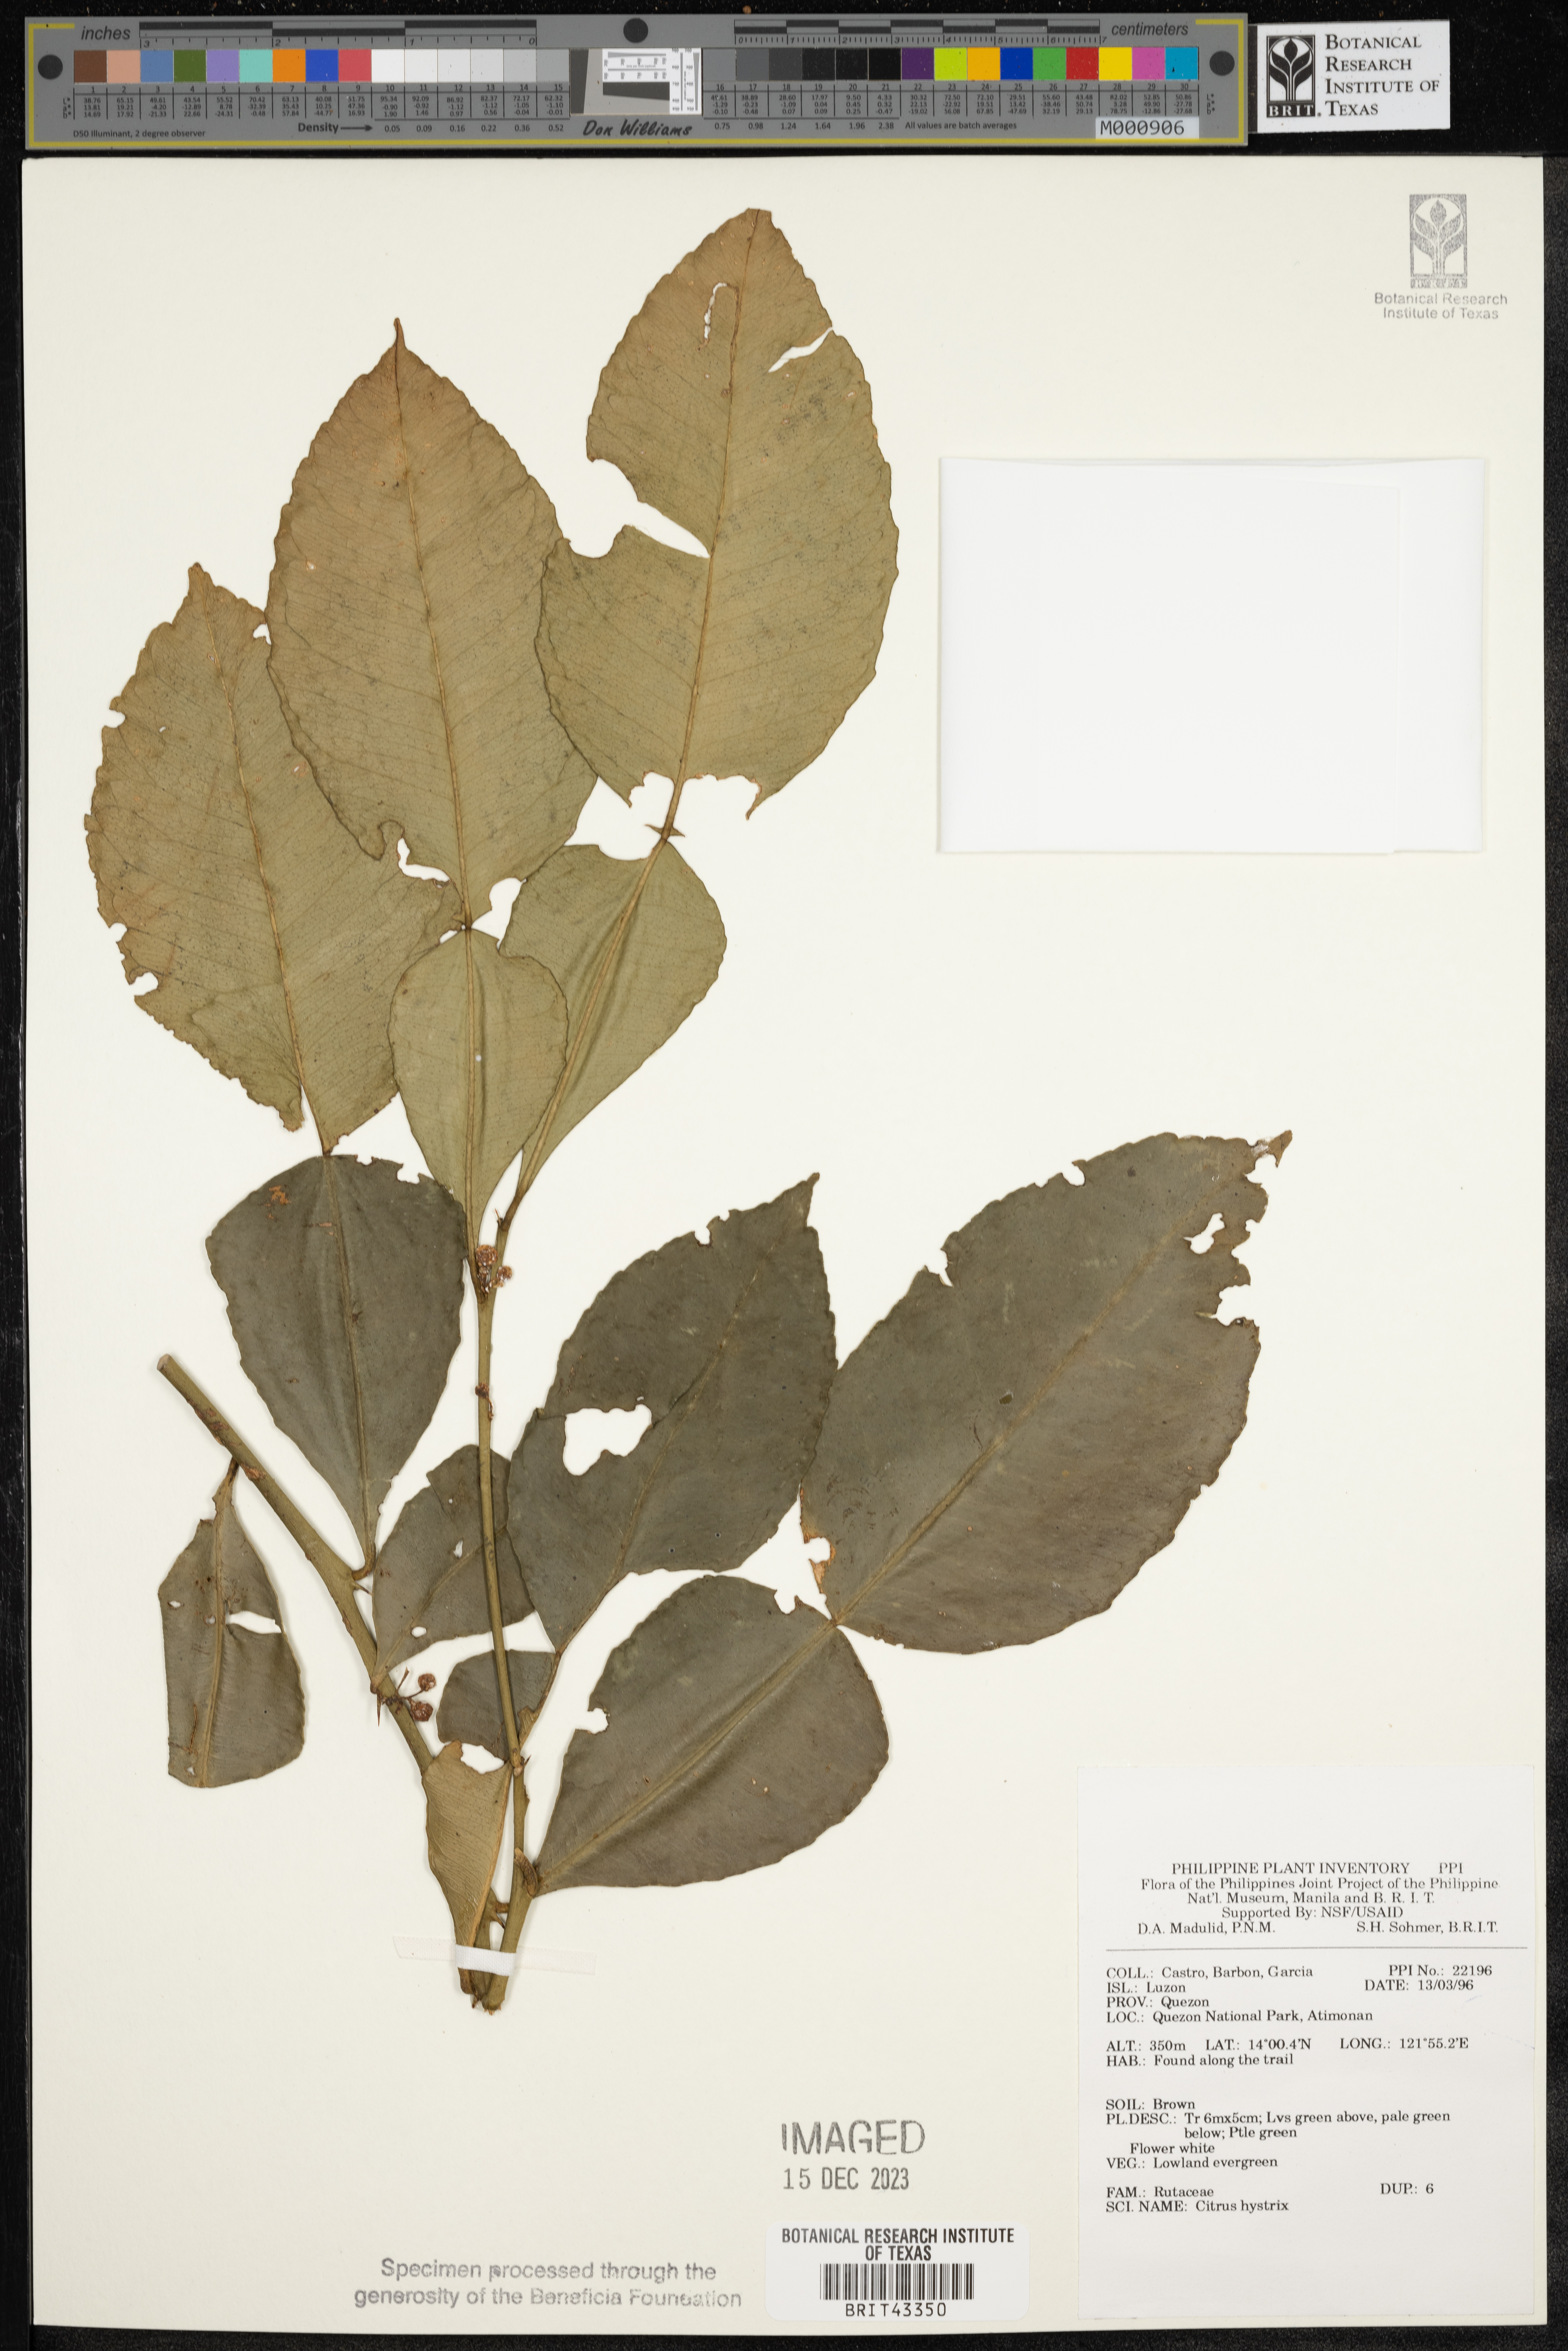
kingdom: Plantae
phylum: Tracheophyta
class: Magnoliopsida
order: Sapindales
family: Rutaceae
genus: Citrus
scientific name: Citrus hystrix
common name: Kaffir-lime
